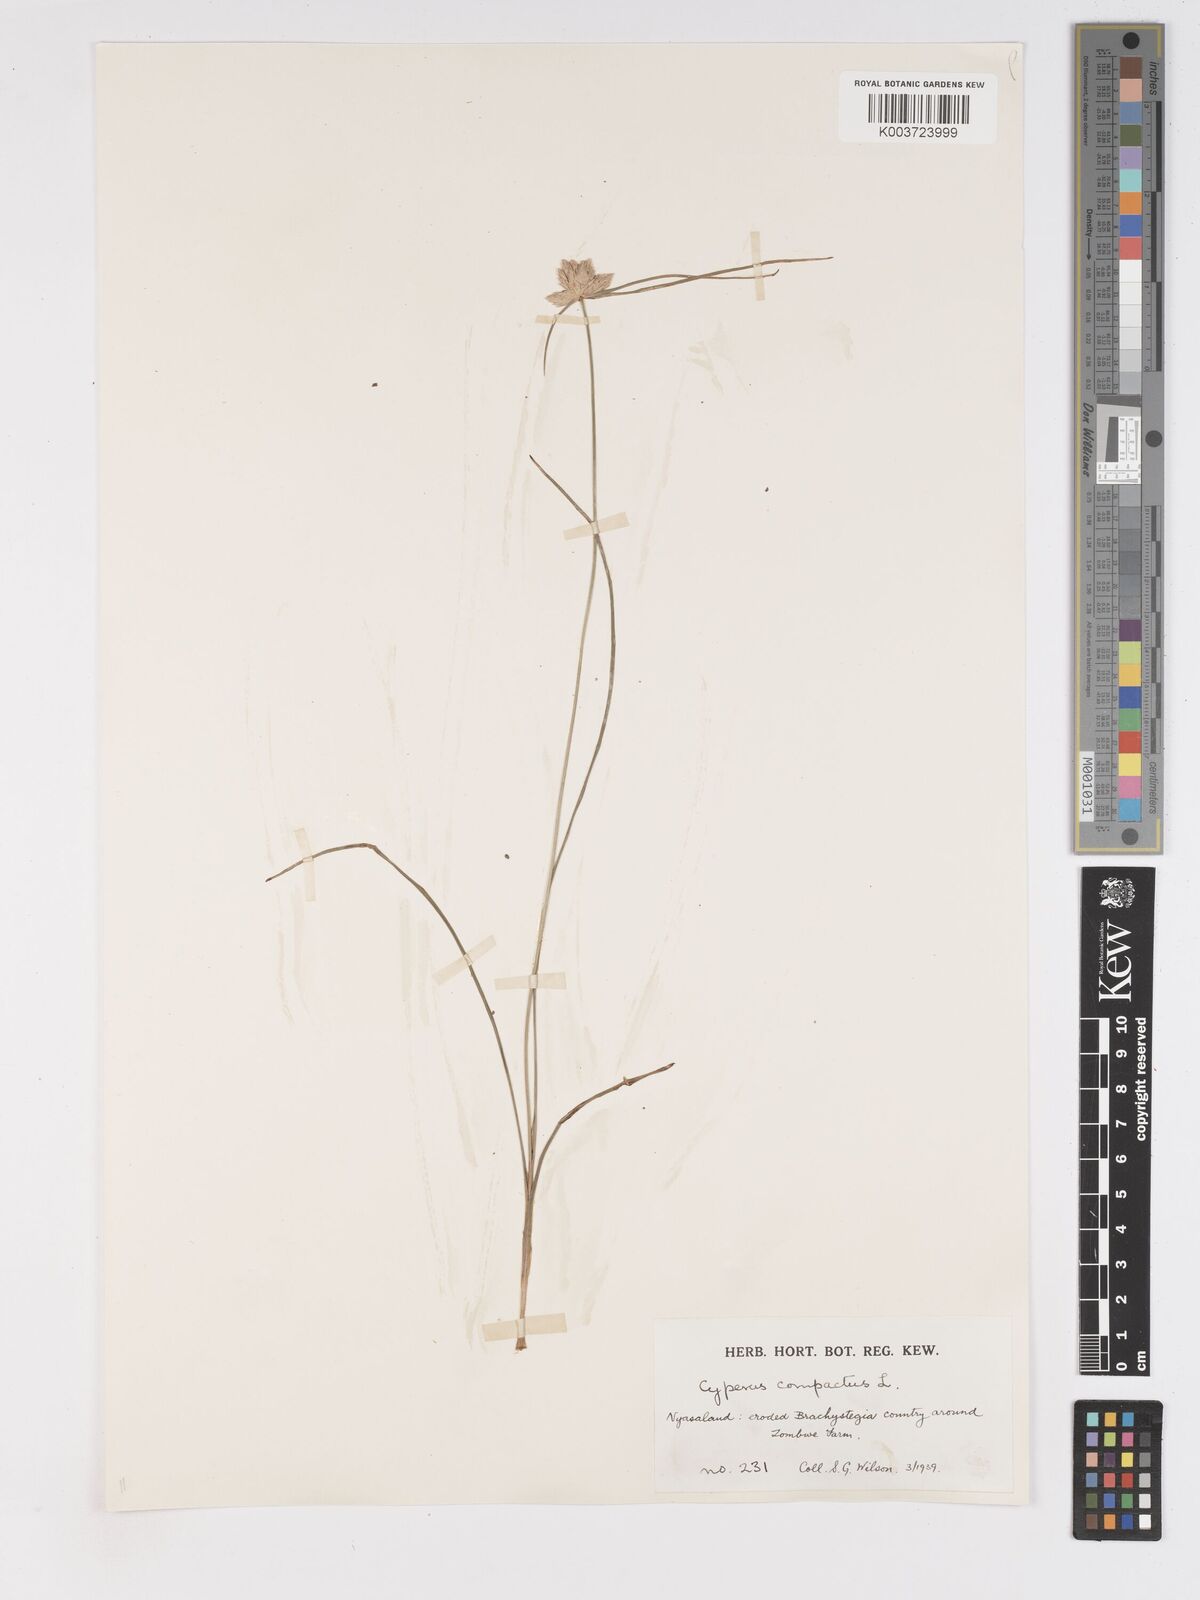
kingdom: Plantae
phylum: Tracheophyta
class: Liliopsida
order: Poales
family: Cyperaceae
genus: Cyperus
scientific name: Cyperus niveus
